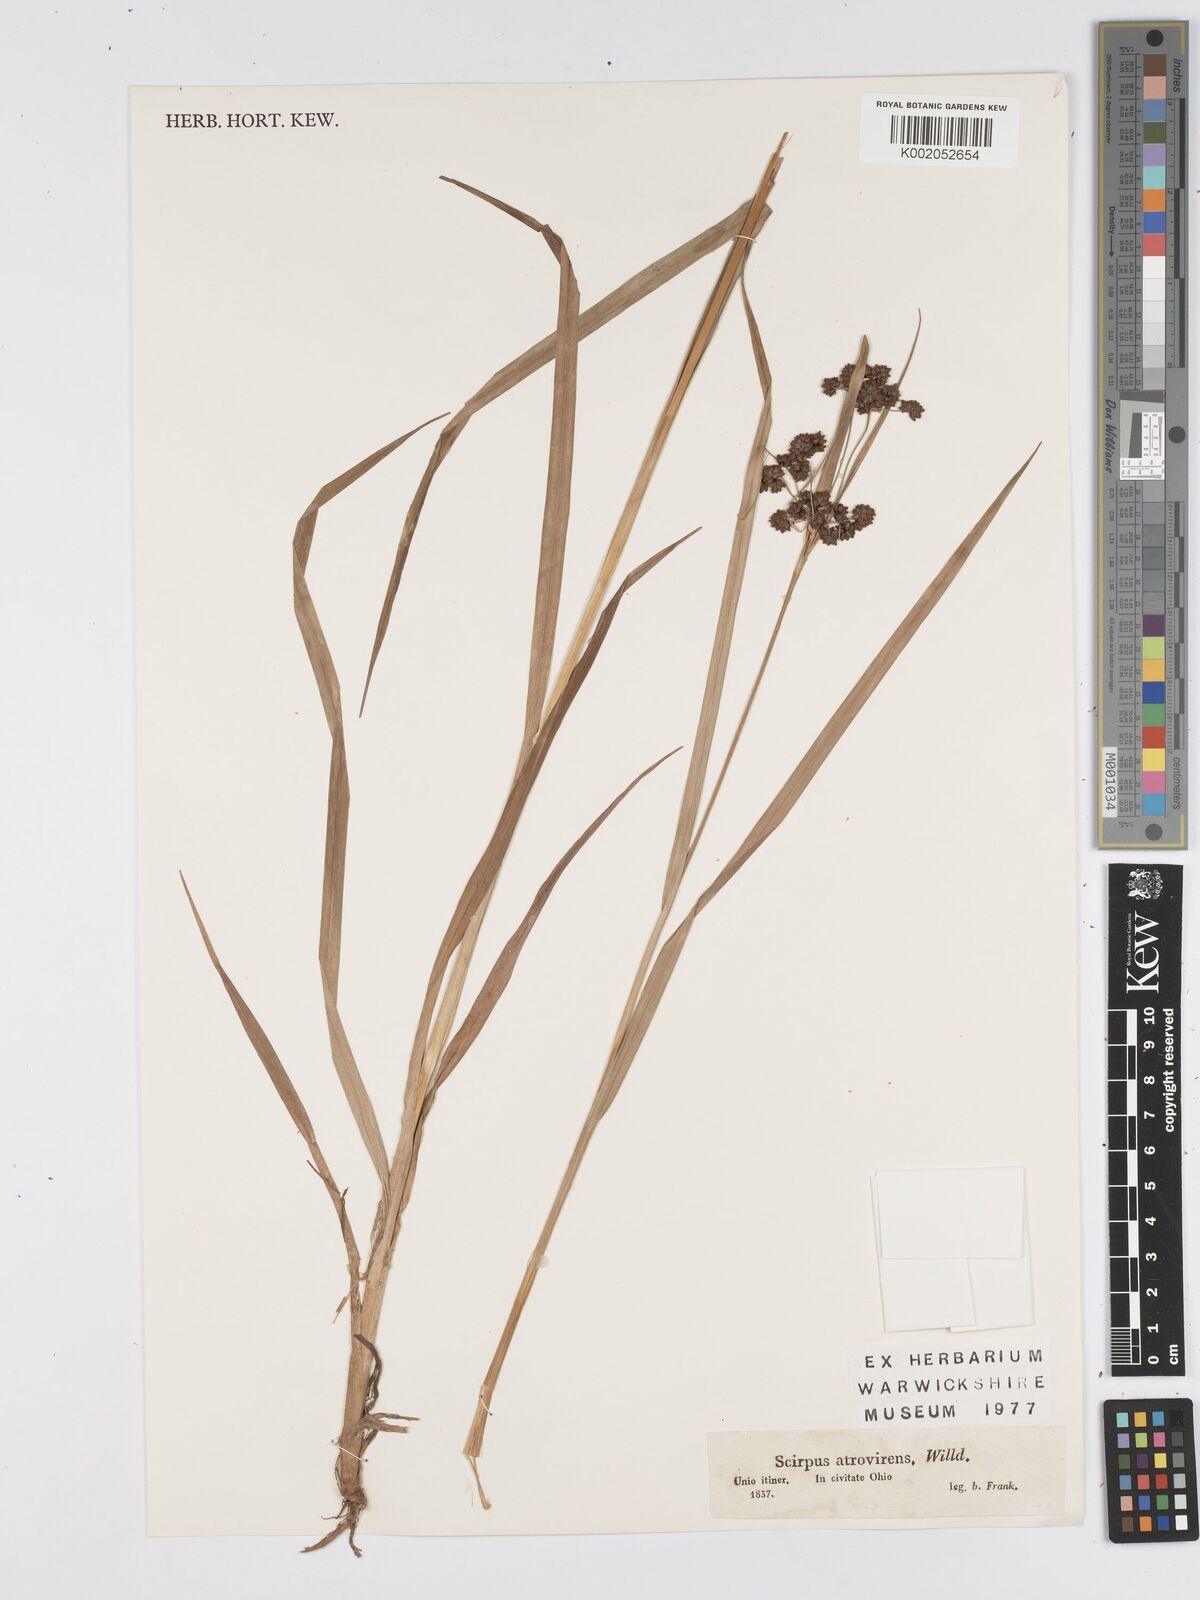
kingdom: Plantae
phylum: Tracheophyta
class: Liliopsida
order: Poales
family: Cyperaceae
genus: Scirpus
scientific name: Scirpus atrovirens
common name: Black bulrush
